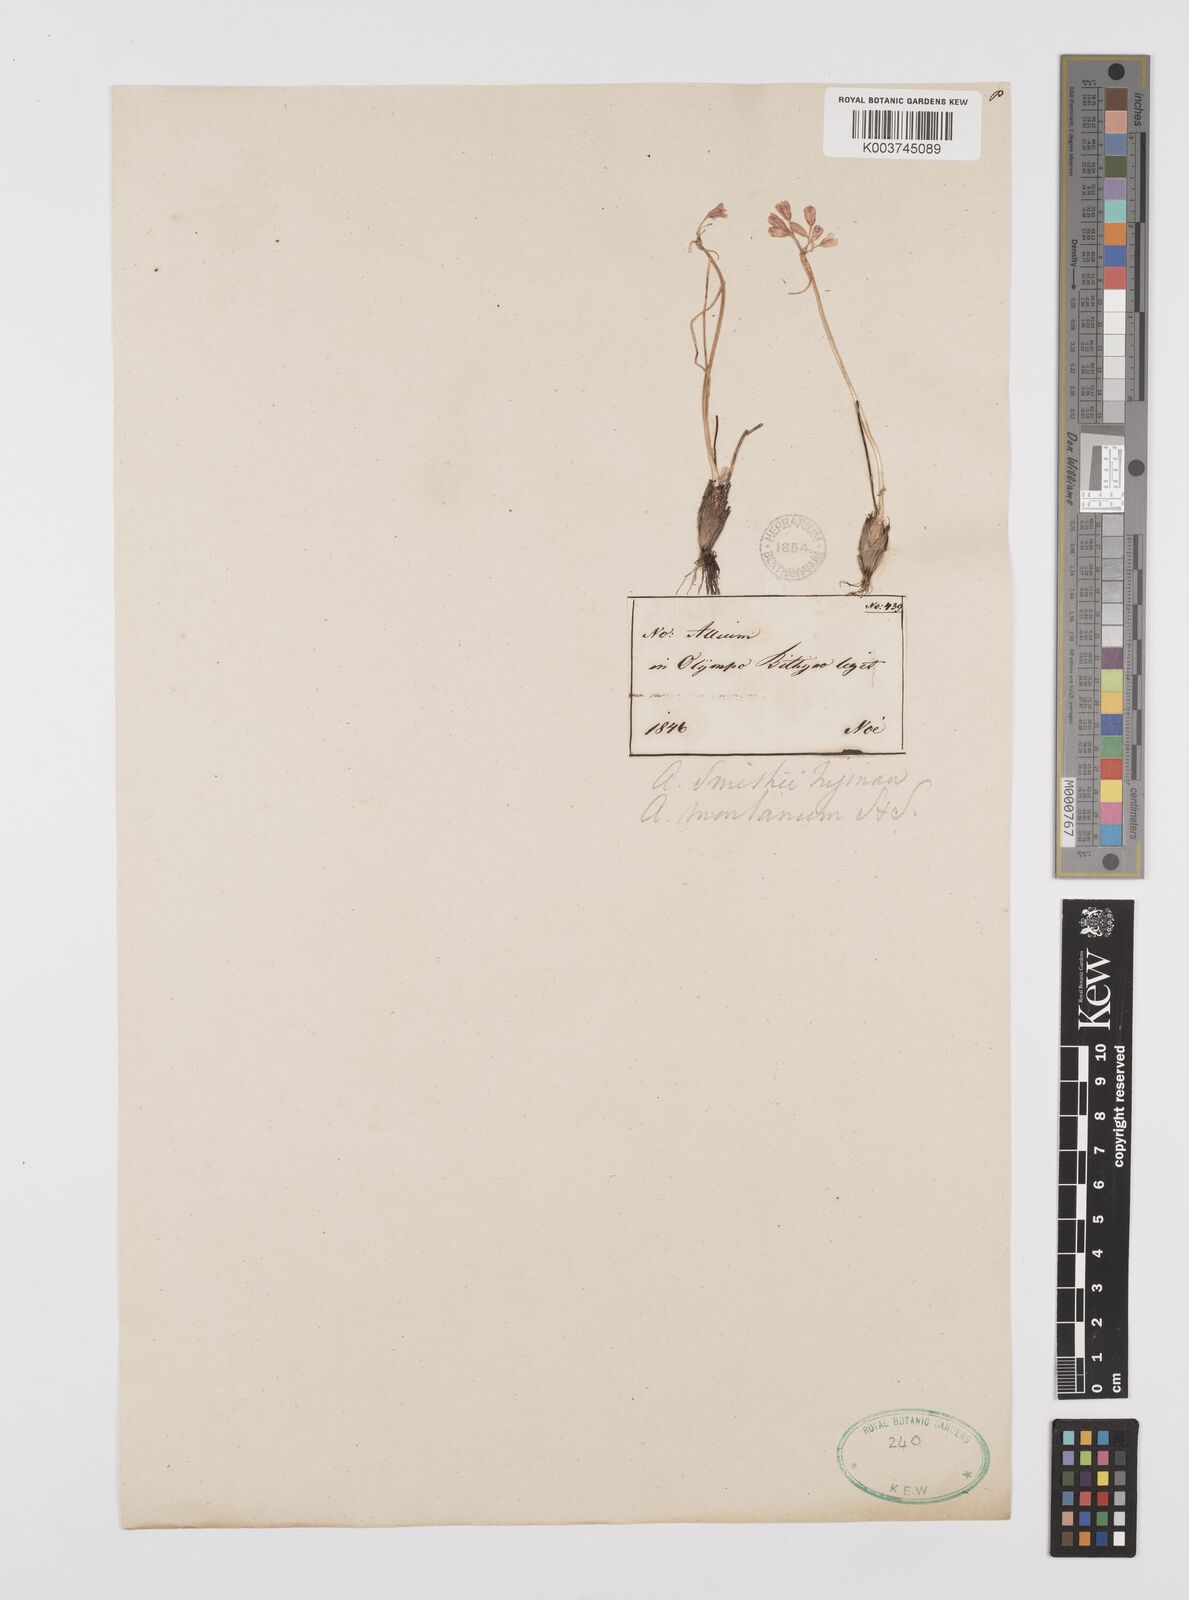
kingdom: Plantae
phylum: Tracheophyta
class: Liliopsida
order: Asparagales
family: Amaryllidaceae
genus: Allium
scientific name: Allium sibthorpianum
